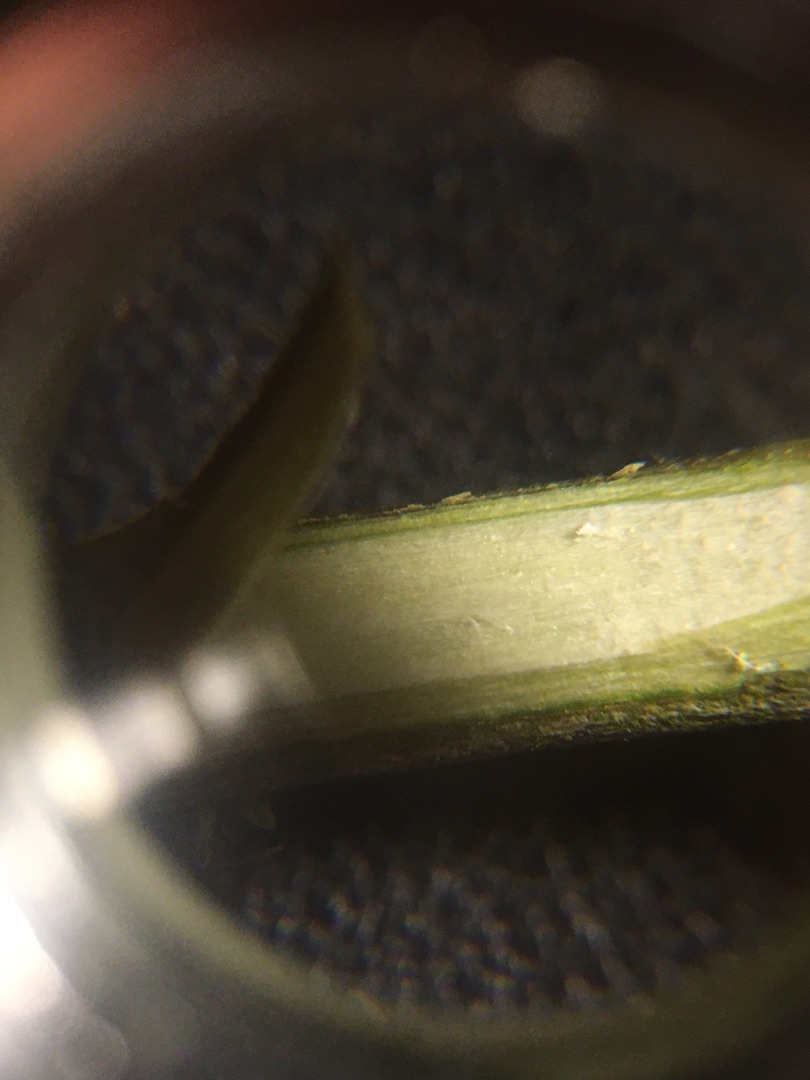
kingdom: Plantae
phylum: Tracheophyta
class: Magnoliopsida
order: Malpighiales
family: Salicaceae
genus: Salix
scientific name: Salix aurita
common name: Øret pil
